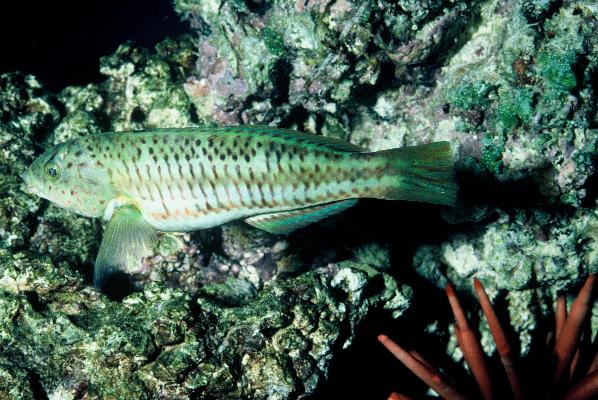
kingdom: Animalia
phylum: Chordata
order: Perciformes
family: Labridae
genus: Thalassoma
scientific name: Thalassoma purpureum
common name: Parrotfish
